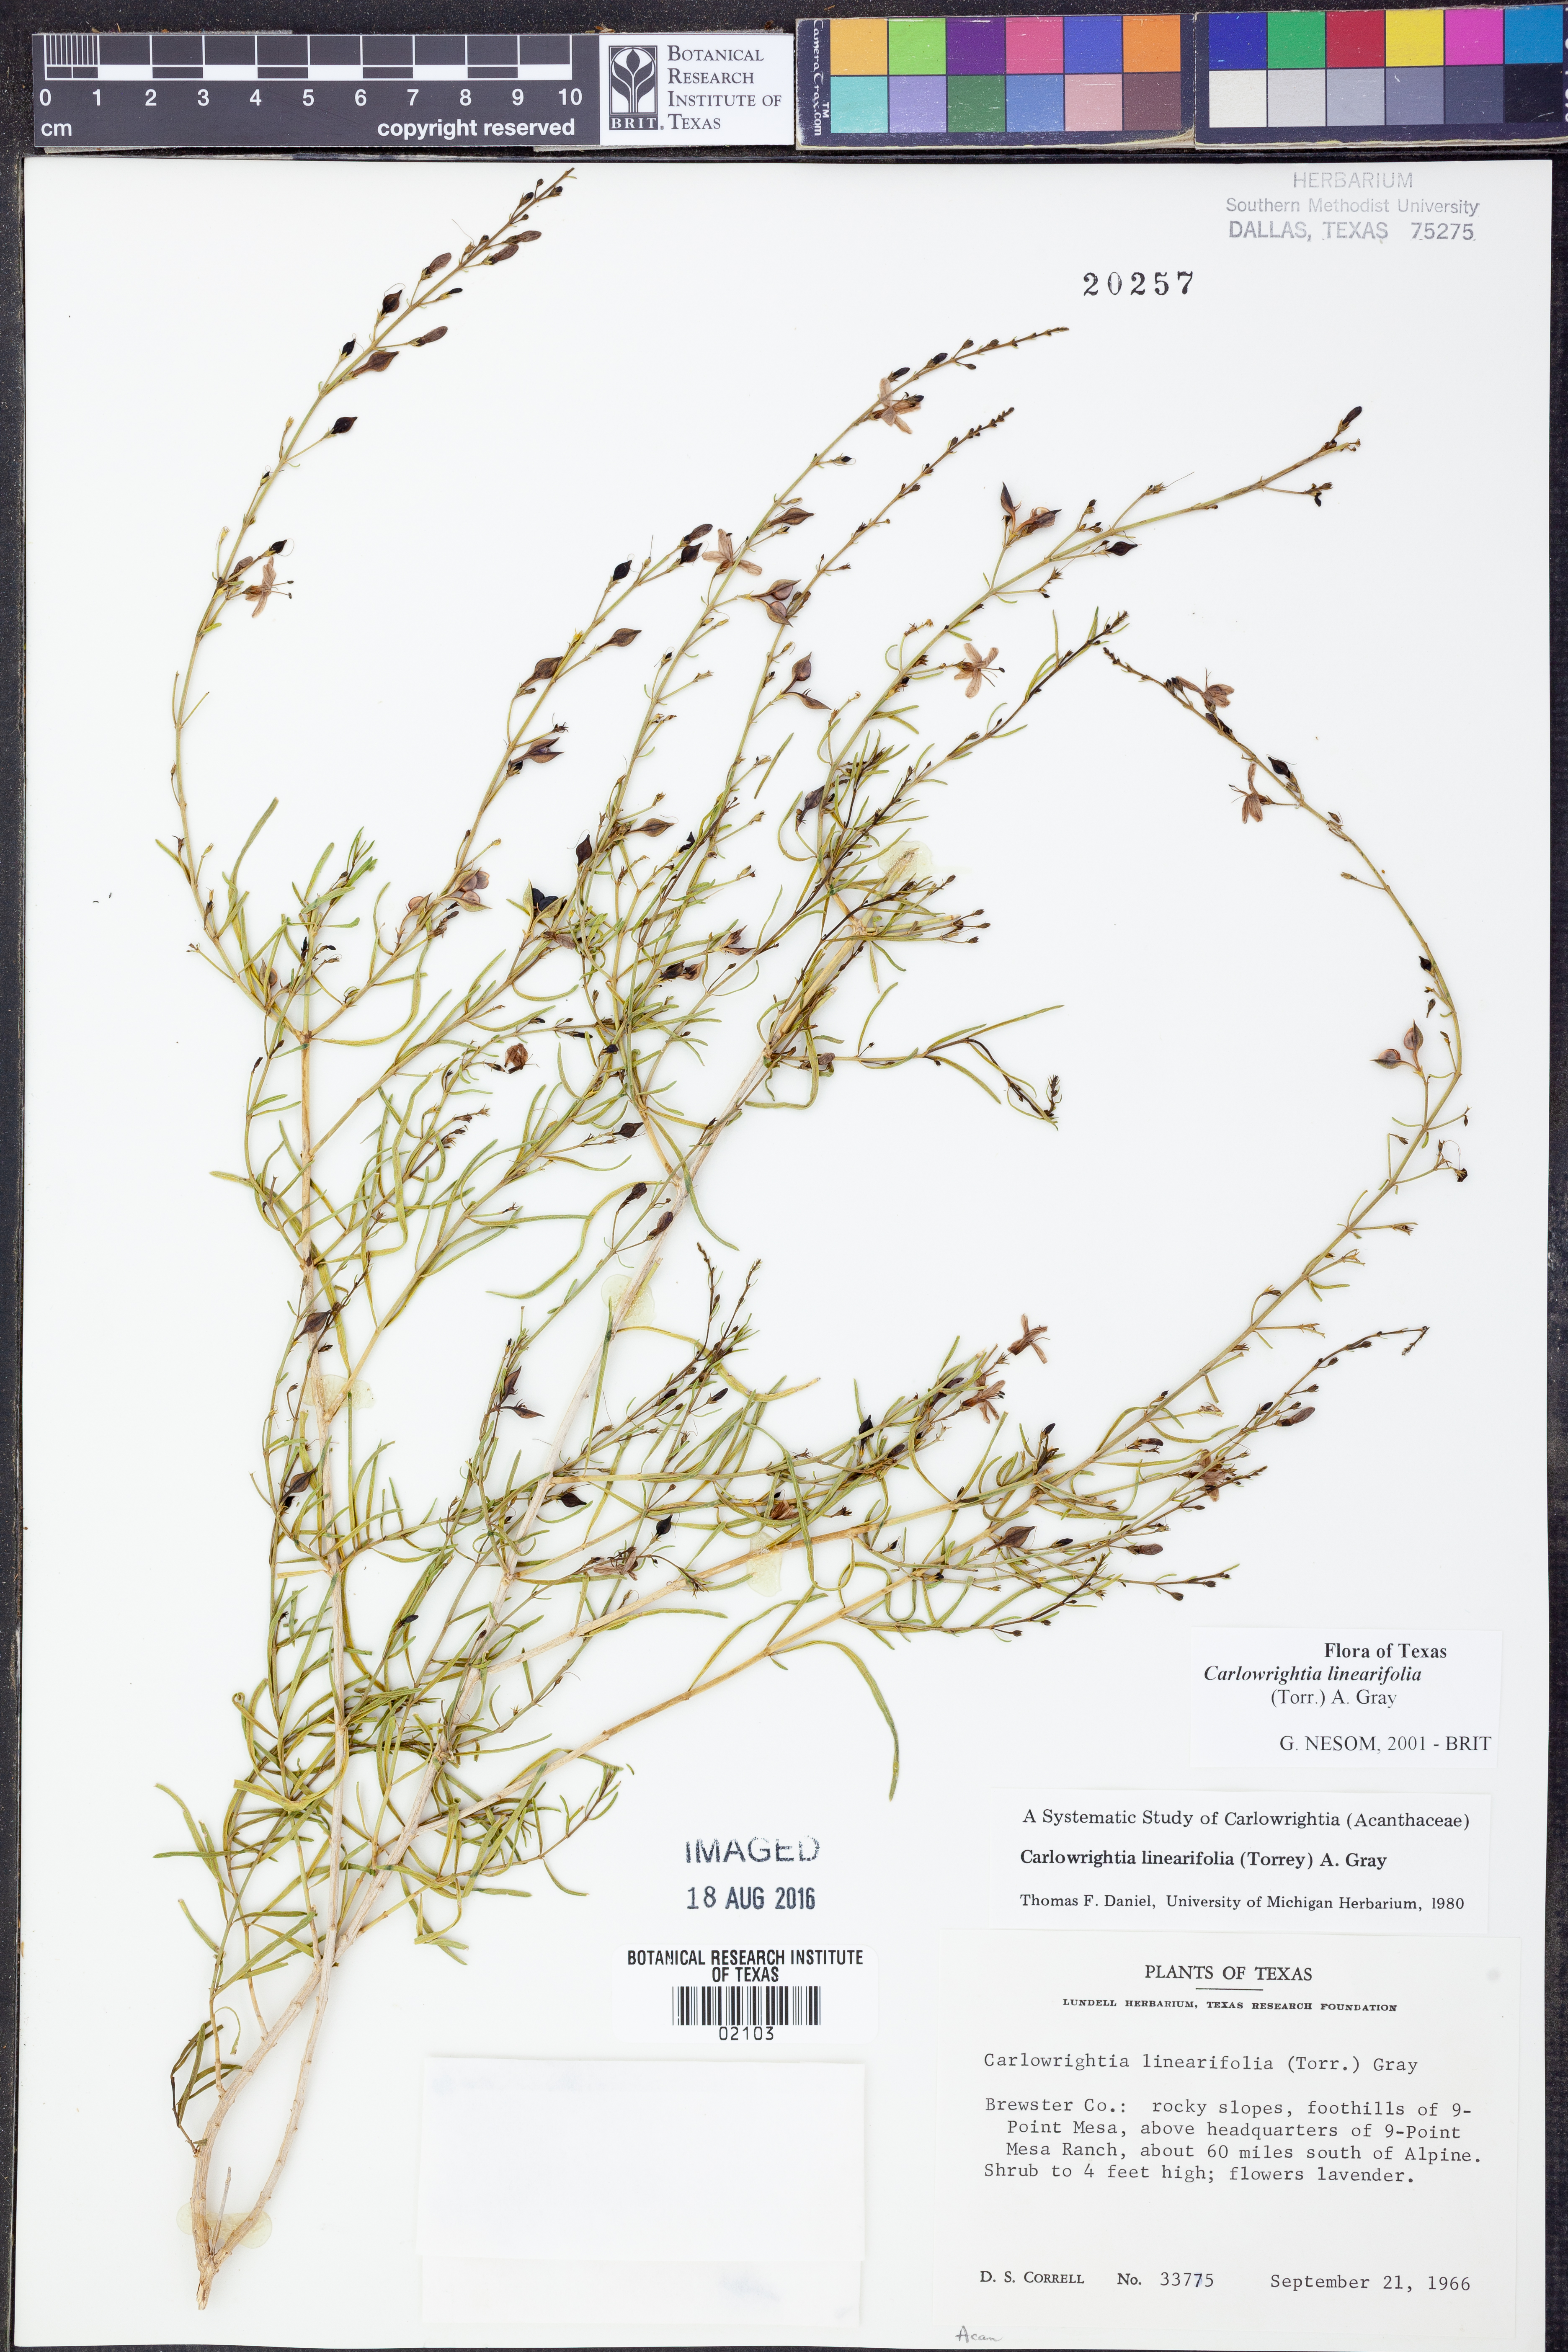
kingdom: Plantae
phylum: Tracheophyta
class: Magnoliopsida
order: Lamiales
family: Acanthaceae
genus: Carlowrightia
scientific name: Carlowrightia linearifolia
